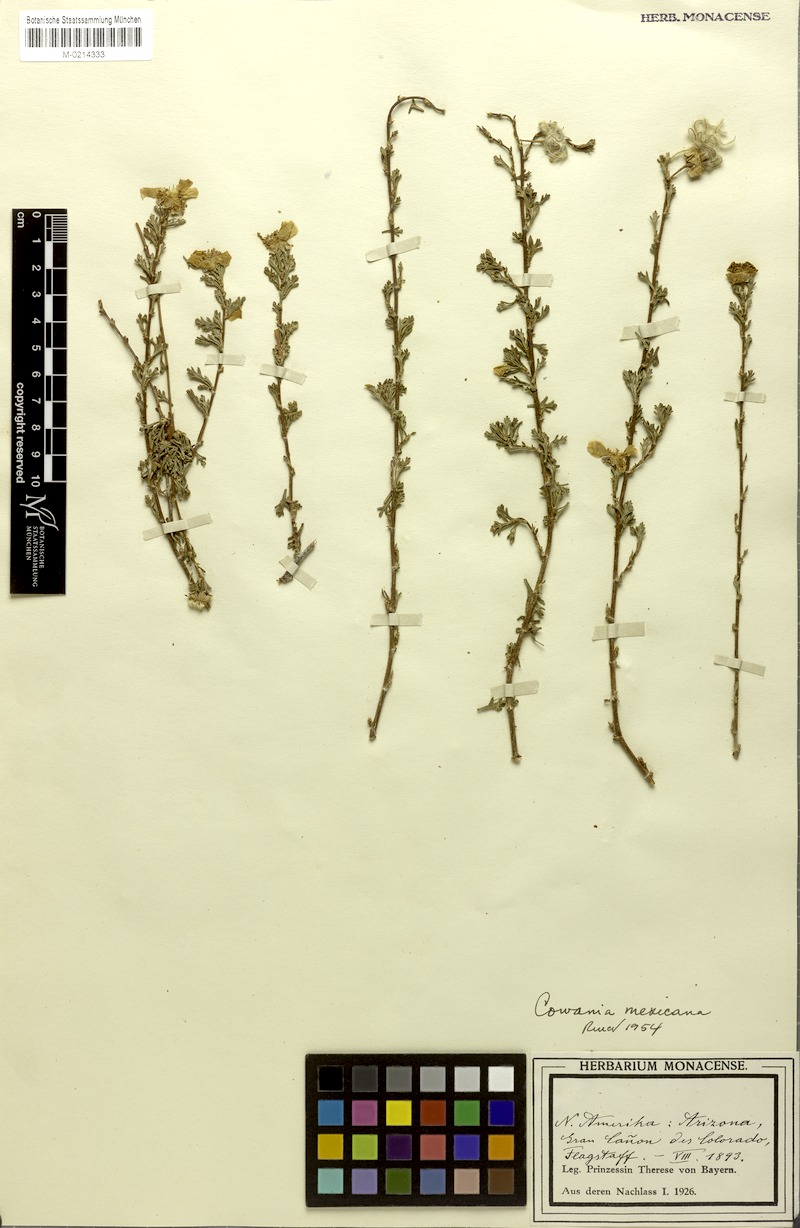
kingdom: Plantae
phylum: Tracheophyta
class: Magnoliopsida
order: Rosales
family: Rosaceae
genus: Purshia
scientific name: Purshia mexicana
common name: Mexican cliffrose
